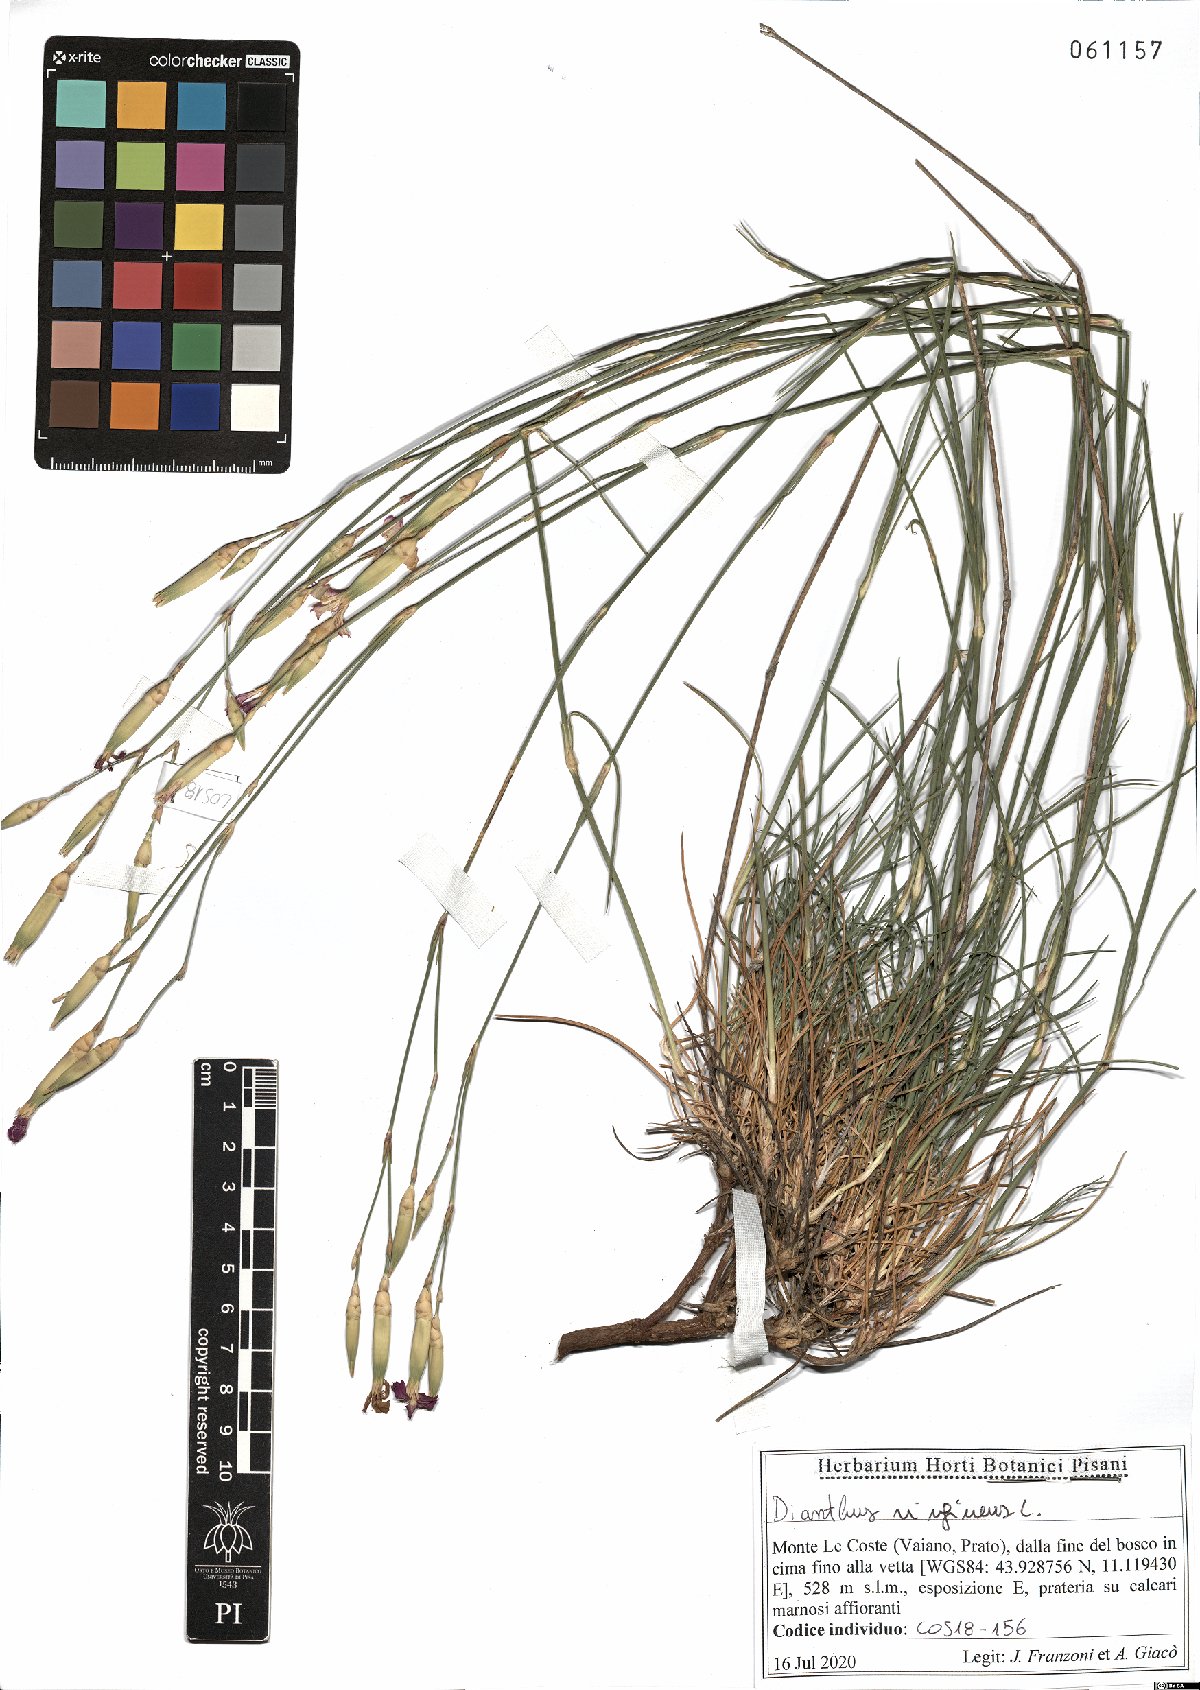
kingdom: Plantae
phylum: Tracheophyta
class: Magnoliopsida
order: Caryophyllales
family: Caryophyllaceae
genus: Dianthus
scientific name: Dianthus virgineus
